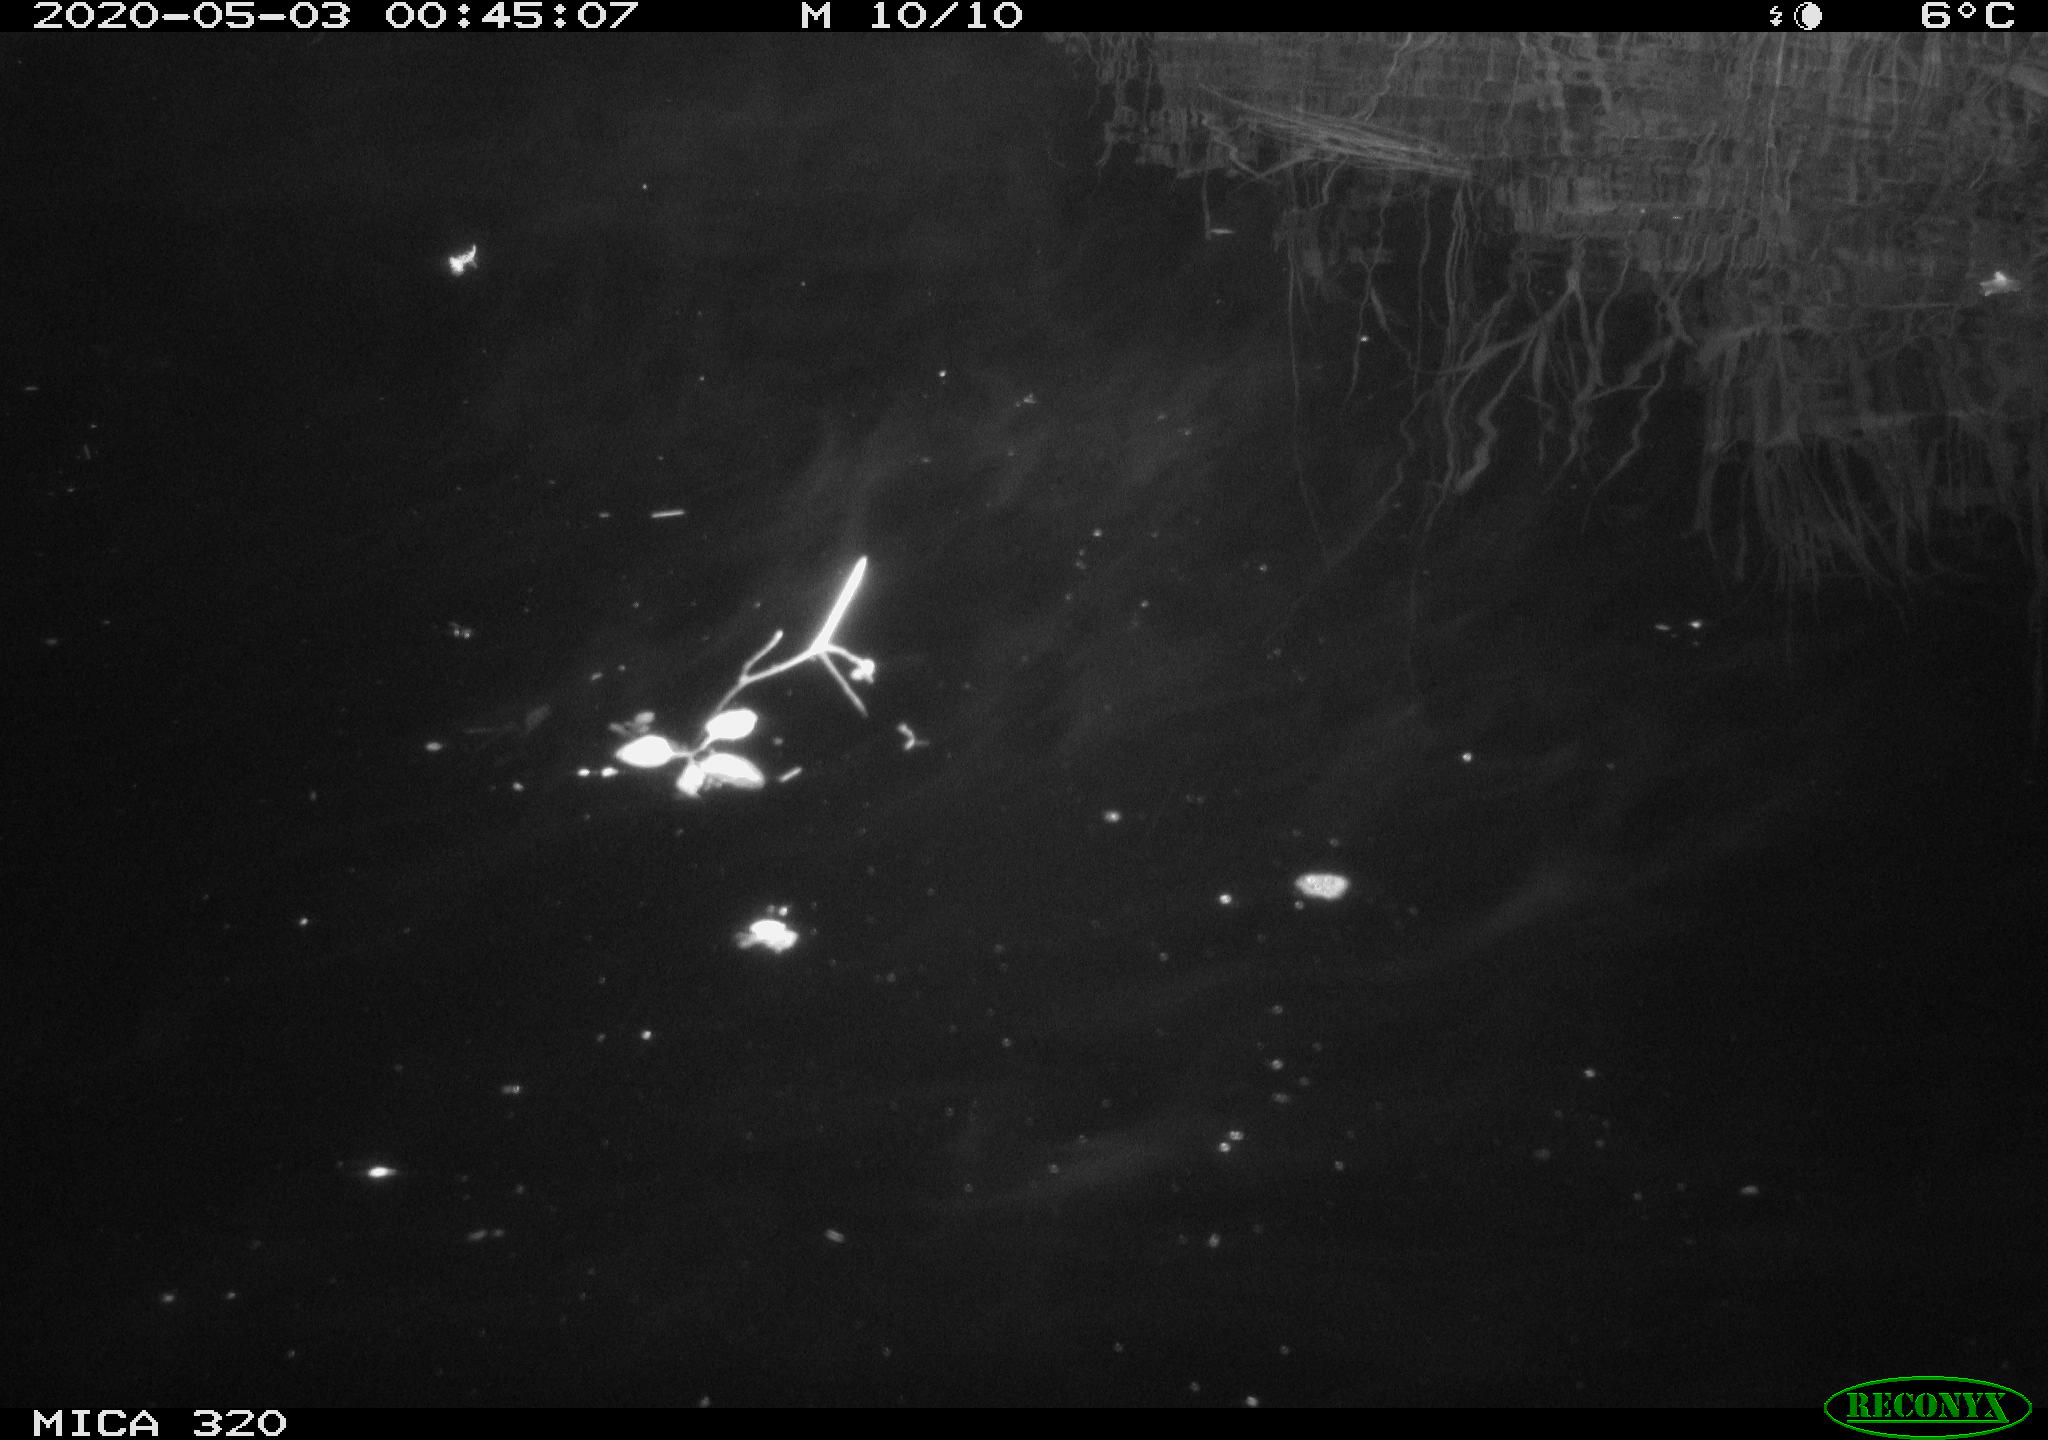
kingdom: Animalia
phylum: Chordata
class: Aves
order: Anseriformes
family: Anatidae
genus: Anas
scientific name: Anas platyrhynchos
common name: Mallard
